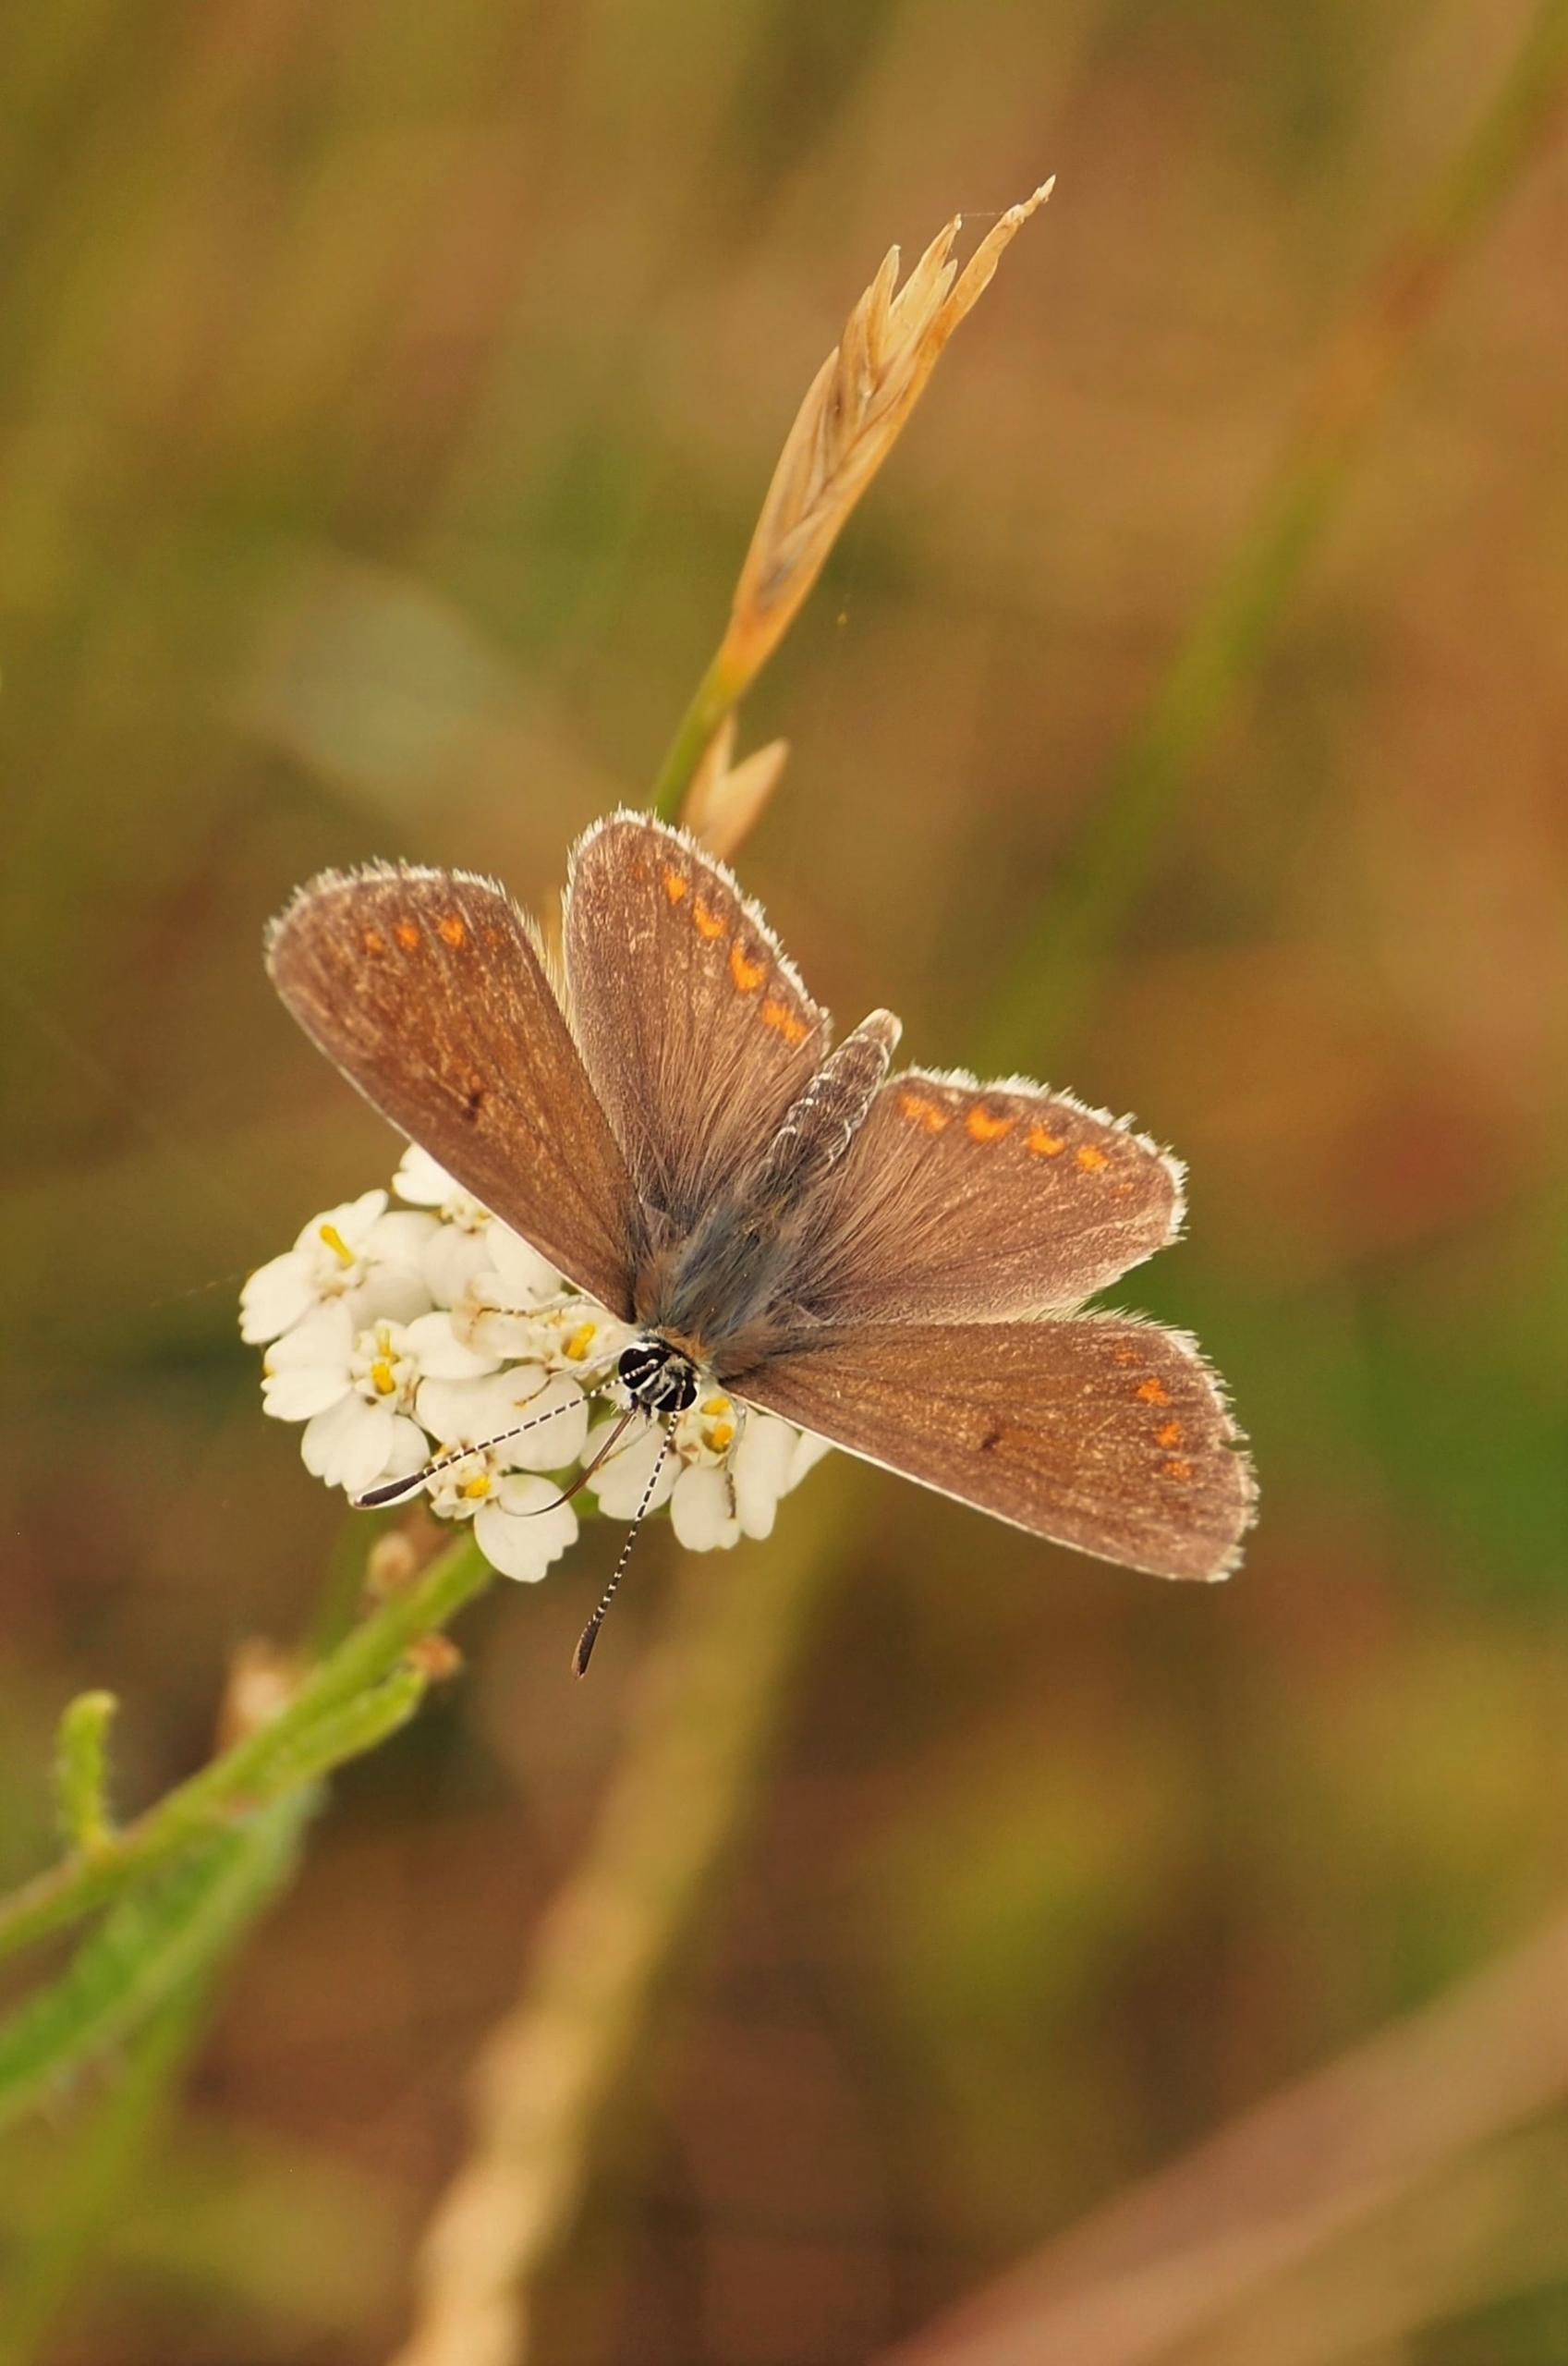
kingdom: Animalia
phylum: Arthropoda
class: Insecta
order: Lepidoptera
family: Lycaenidae
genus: Aricia
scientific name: Aricia agestis
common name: Rødplettet blåfugl
